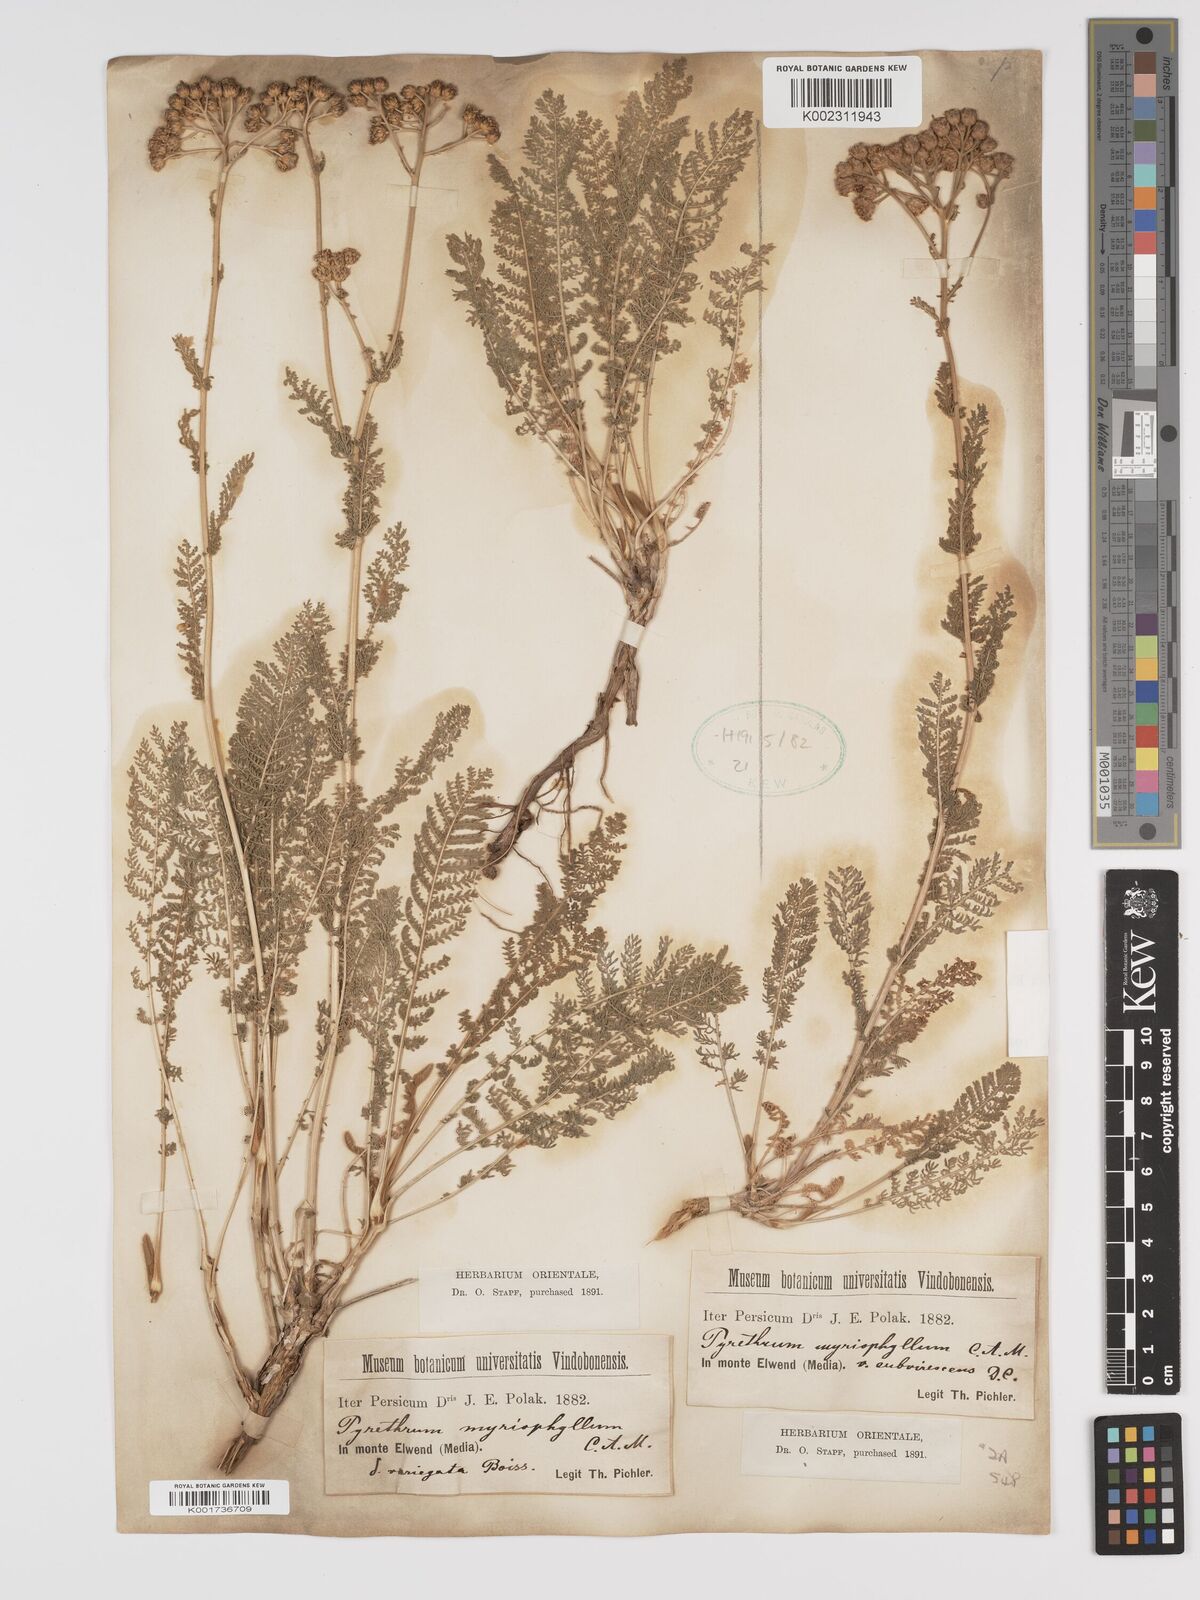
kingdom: Plantae
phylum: Tracheophyta
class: Magnoliopsida
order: Asterales
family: Asteraceae
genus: Tanacetum
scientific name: Tanacetum polycephalum
